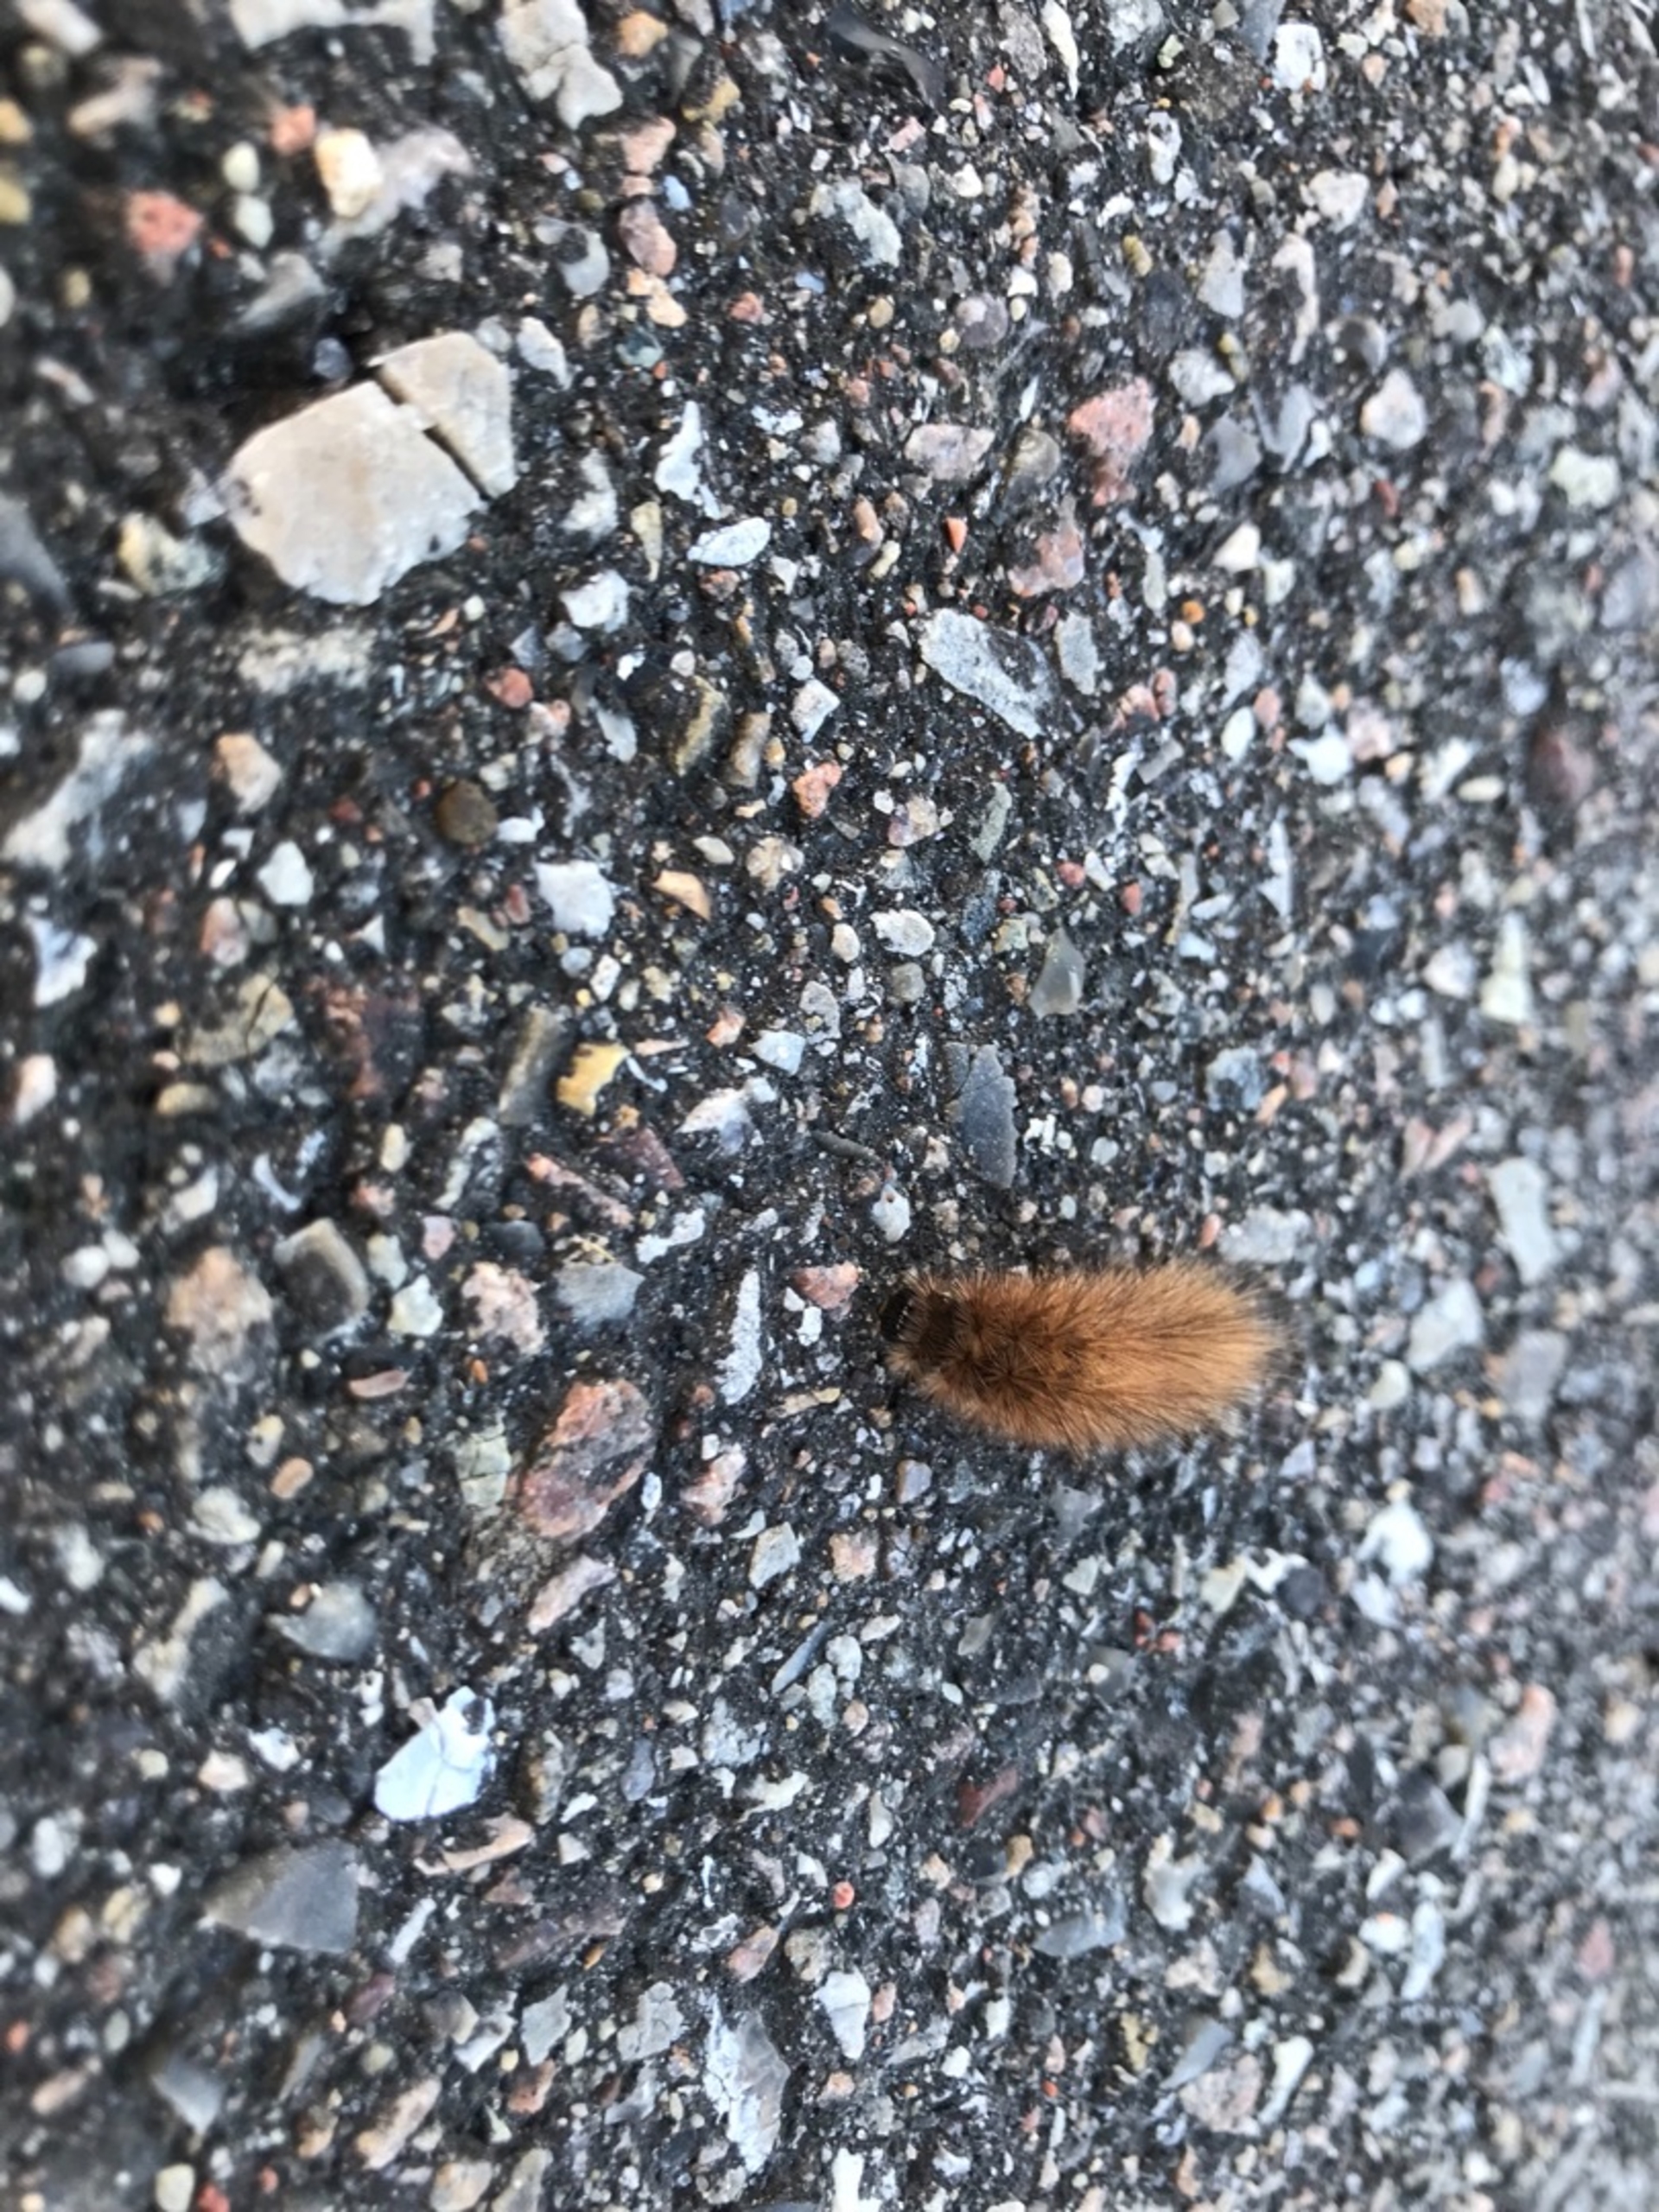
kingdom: Animalia
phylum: Arthropoda
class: Insecta
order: Lepidoptera
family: Erebidae
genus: Phragmatobia
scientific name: Phragmatobia fuliginosa
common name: Kanelbjørn
